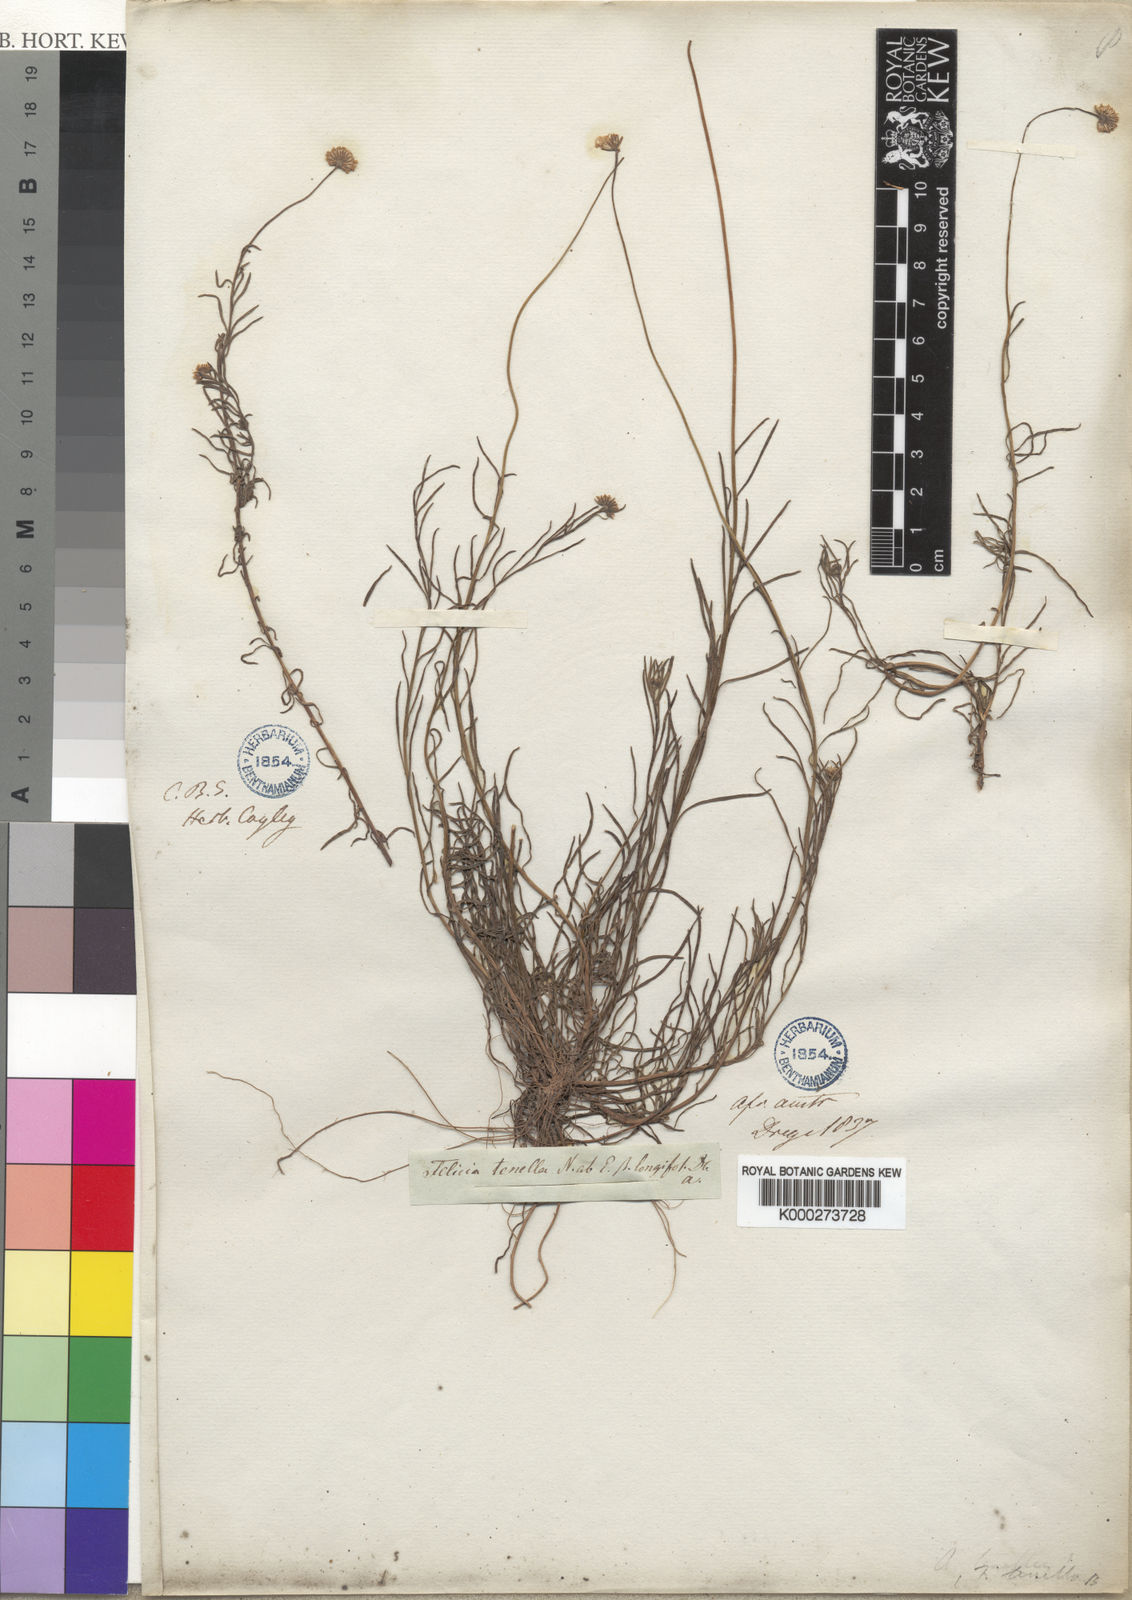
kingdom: Plantae
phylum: Tracheophyta
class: Magnoliopsida
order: Asterales
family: Asteraceae
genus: Felicia
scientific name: Felicia tenella
